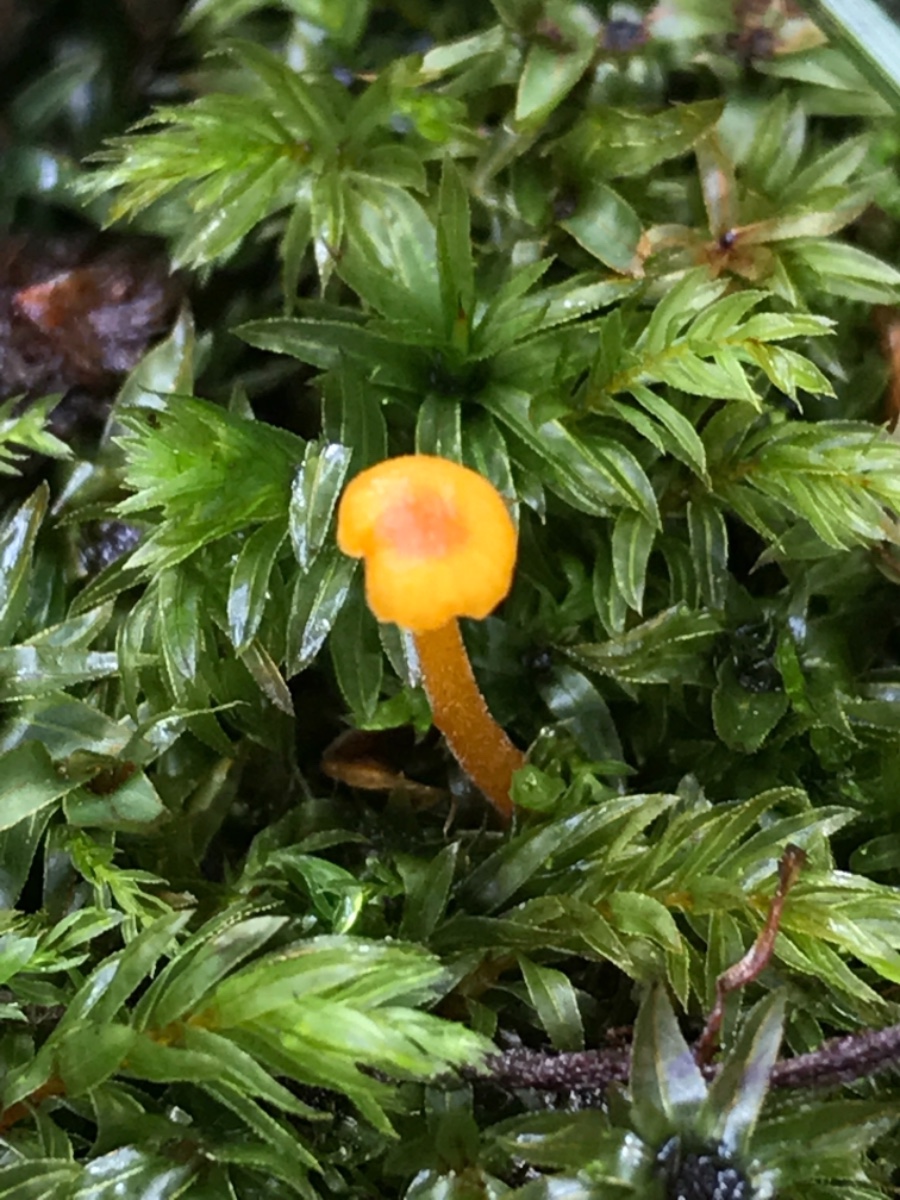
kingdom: Fungi
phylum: Basidiomycota
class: Agaricomycetes
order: Hymenochaetales
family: Rickenellaceae
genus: Rickenella
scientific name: Rickenella fibula
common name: orange mosnavlehat
